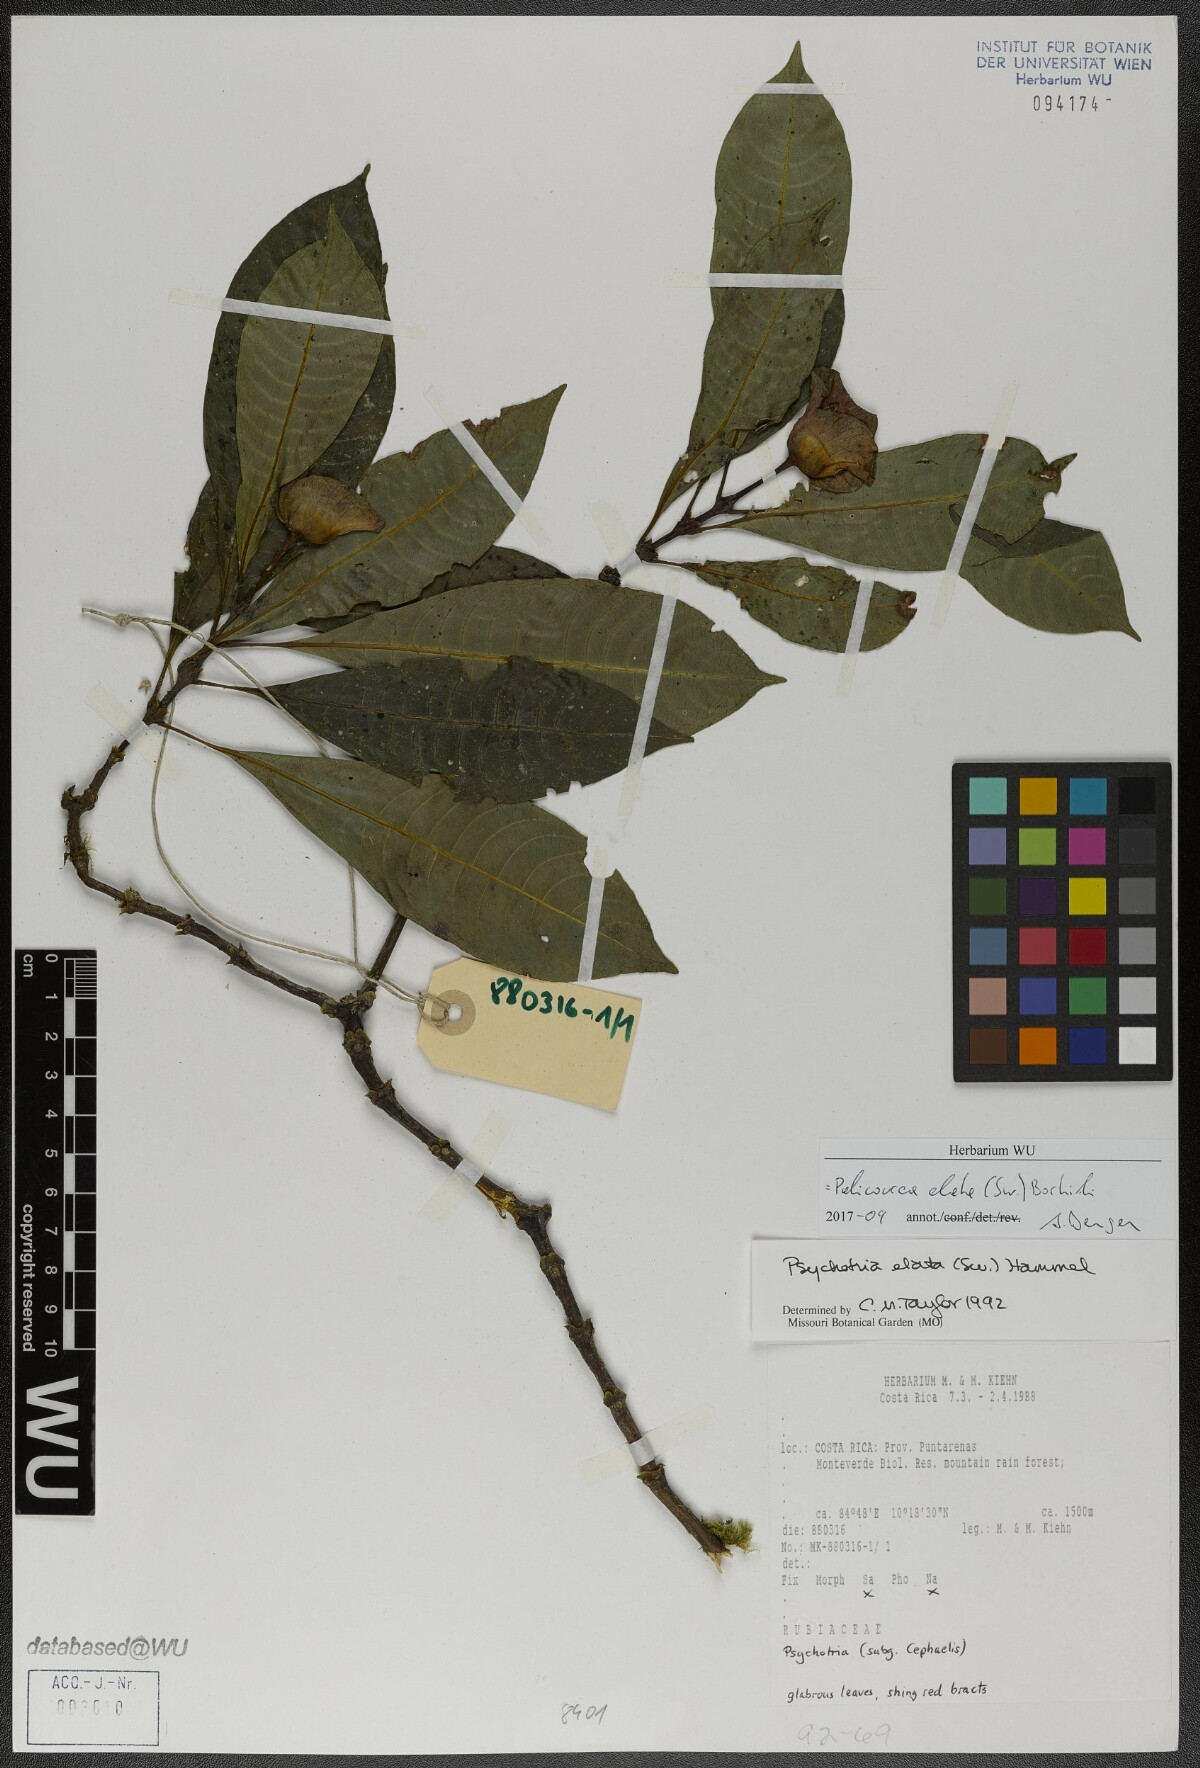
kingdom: Plantae
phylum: Tracheophyta
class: Magnoliopsida
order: Gentianales
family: Rubiaceae
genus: Palicourea
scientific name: Palicourea elata
